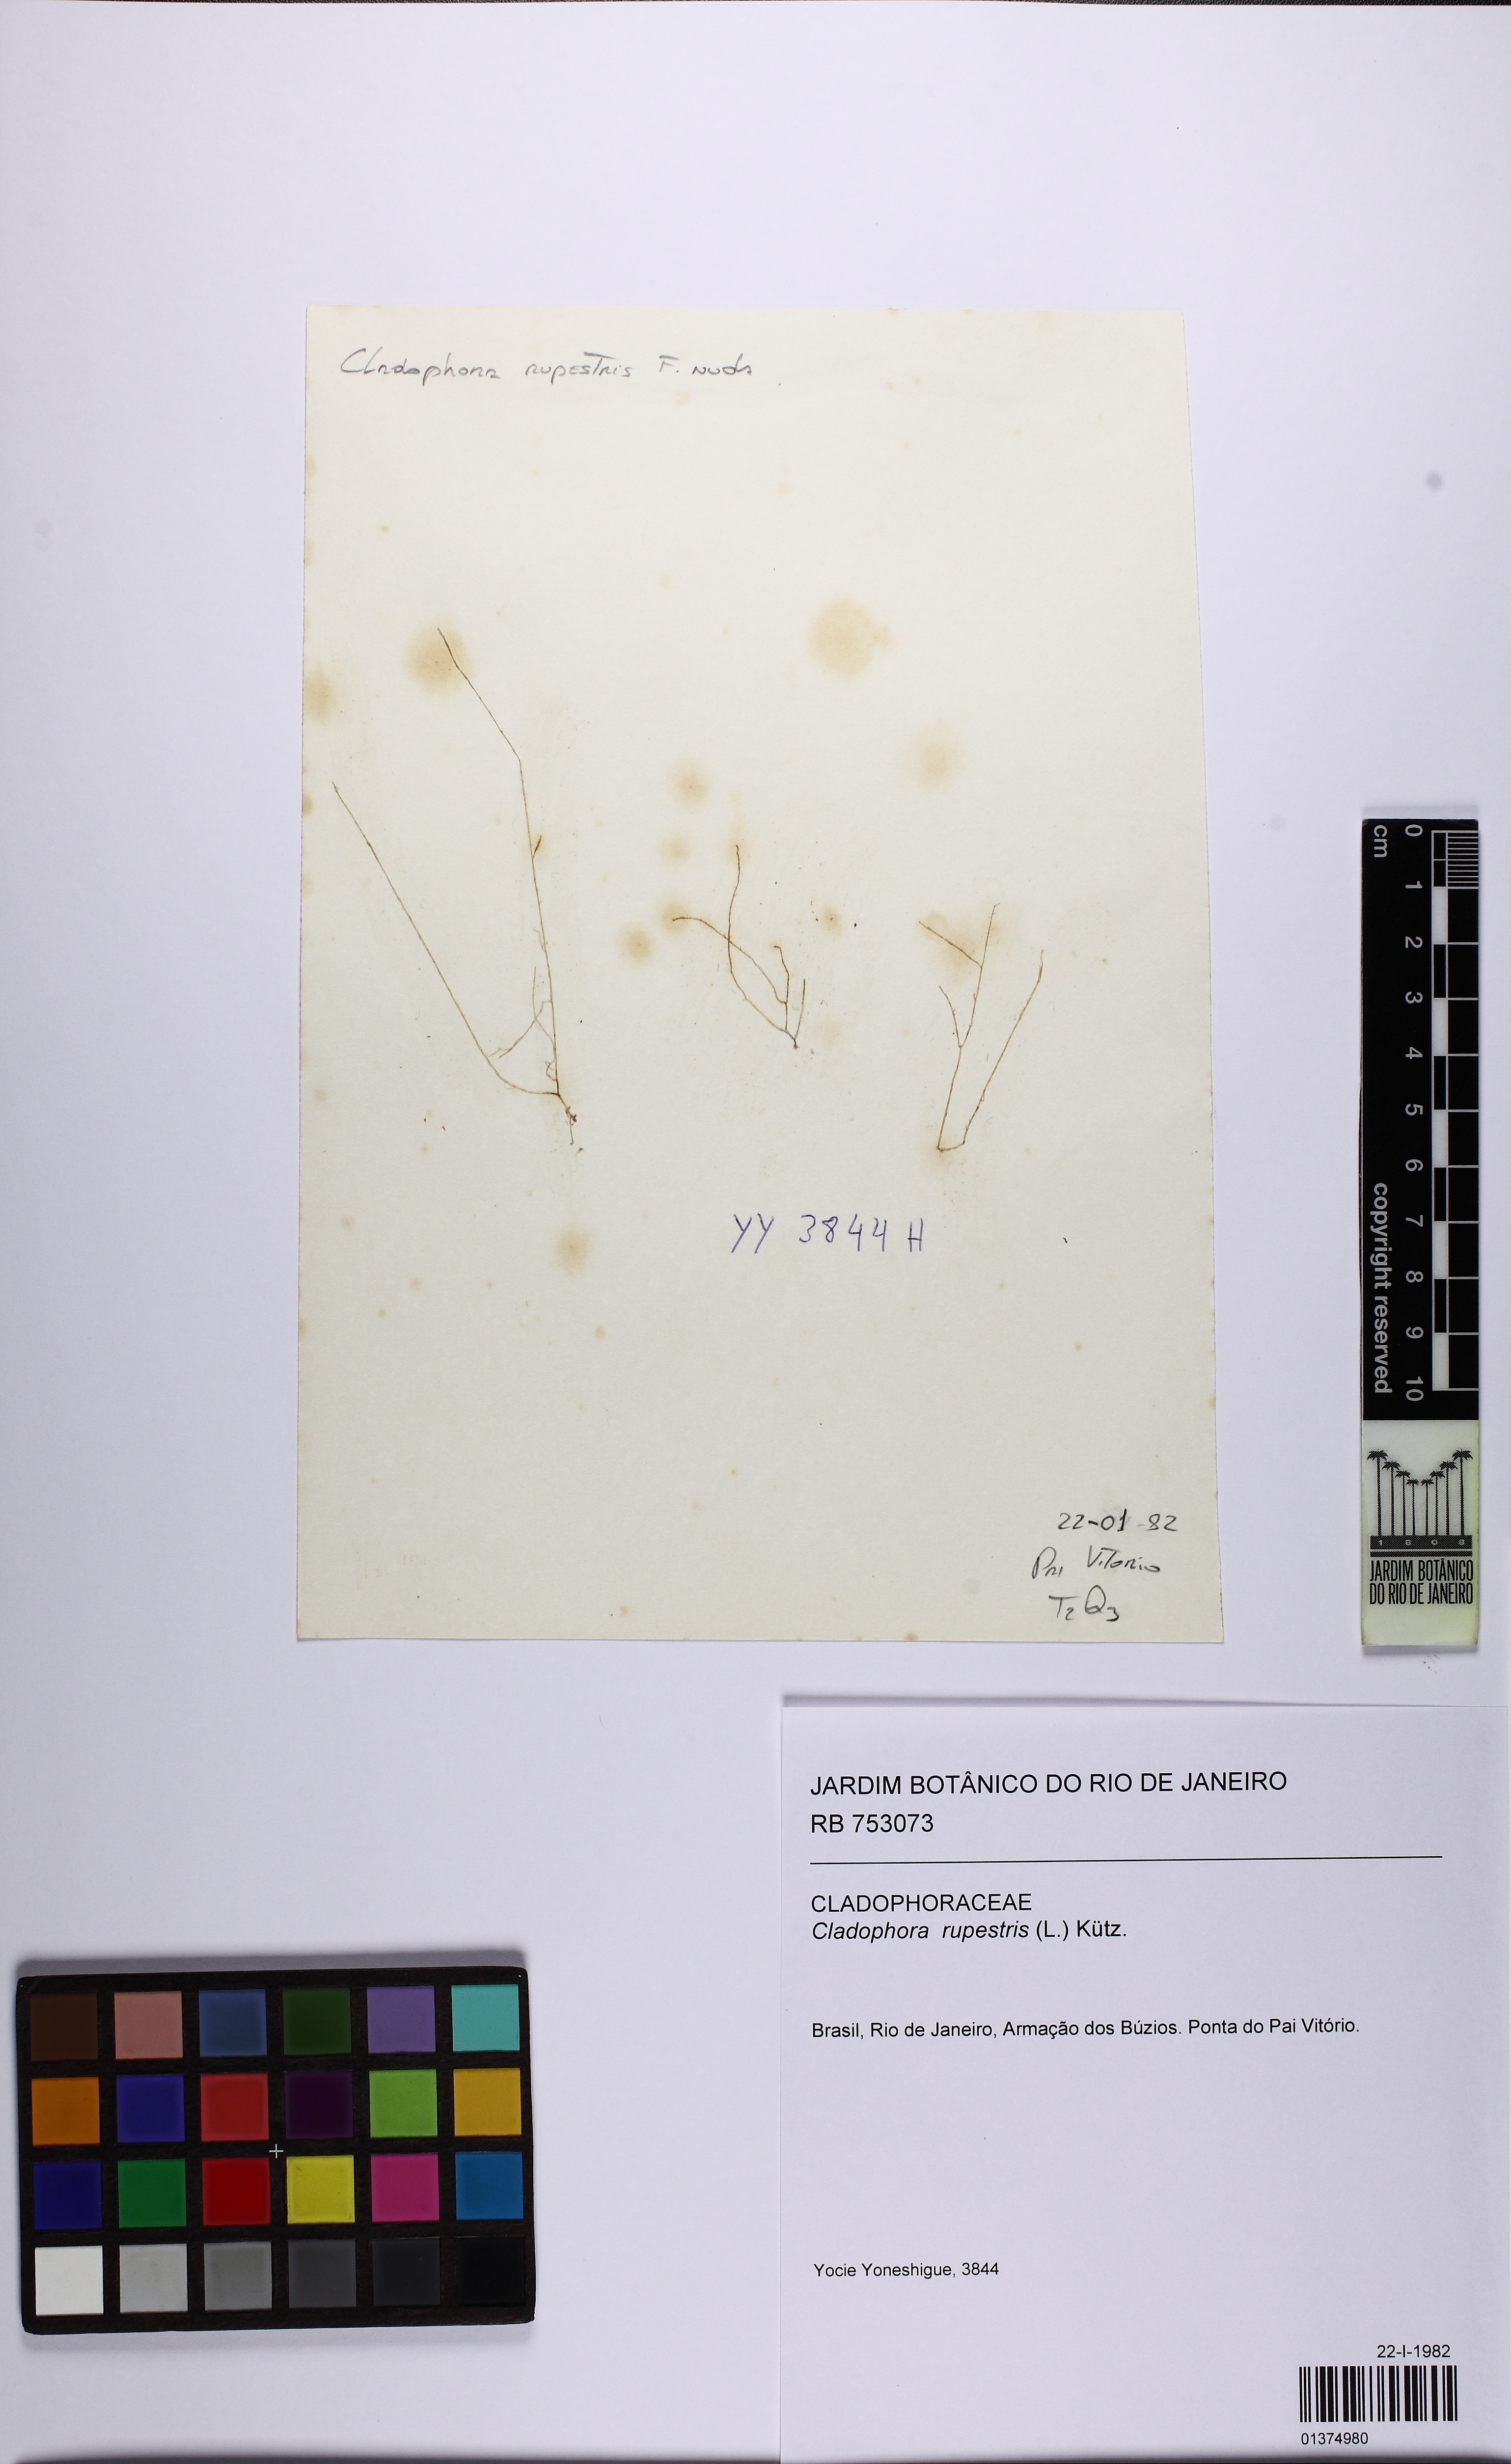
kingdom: Plantae
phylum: Chlorophyta
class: Ulvophyceae
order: Cladophorales
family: Cladophoraceae
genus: Cladophora
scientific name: Cladophora rupestris
